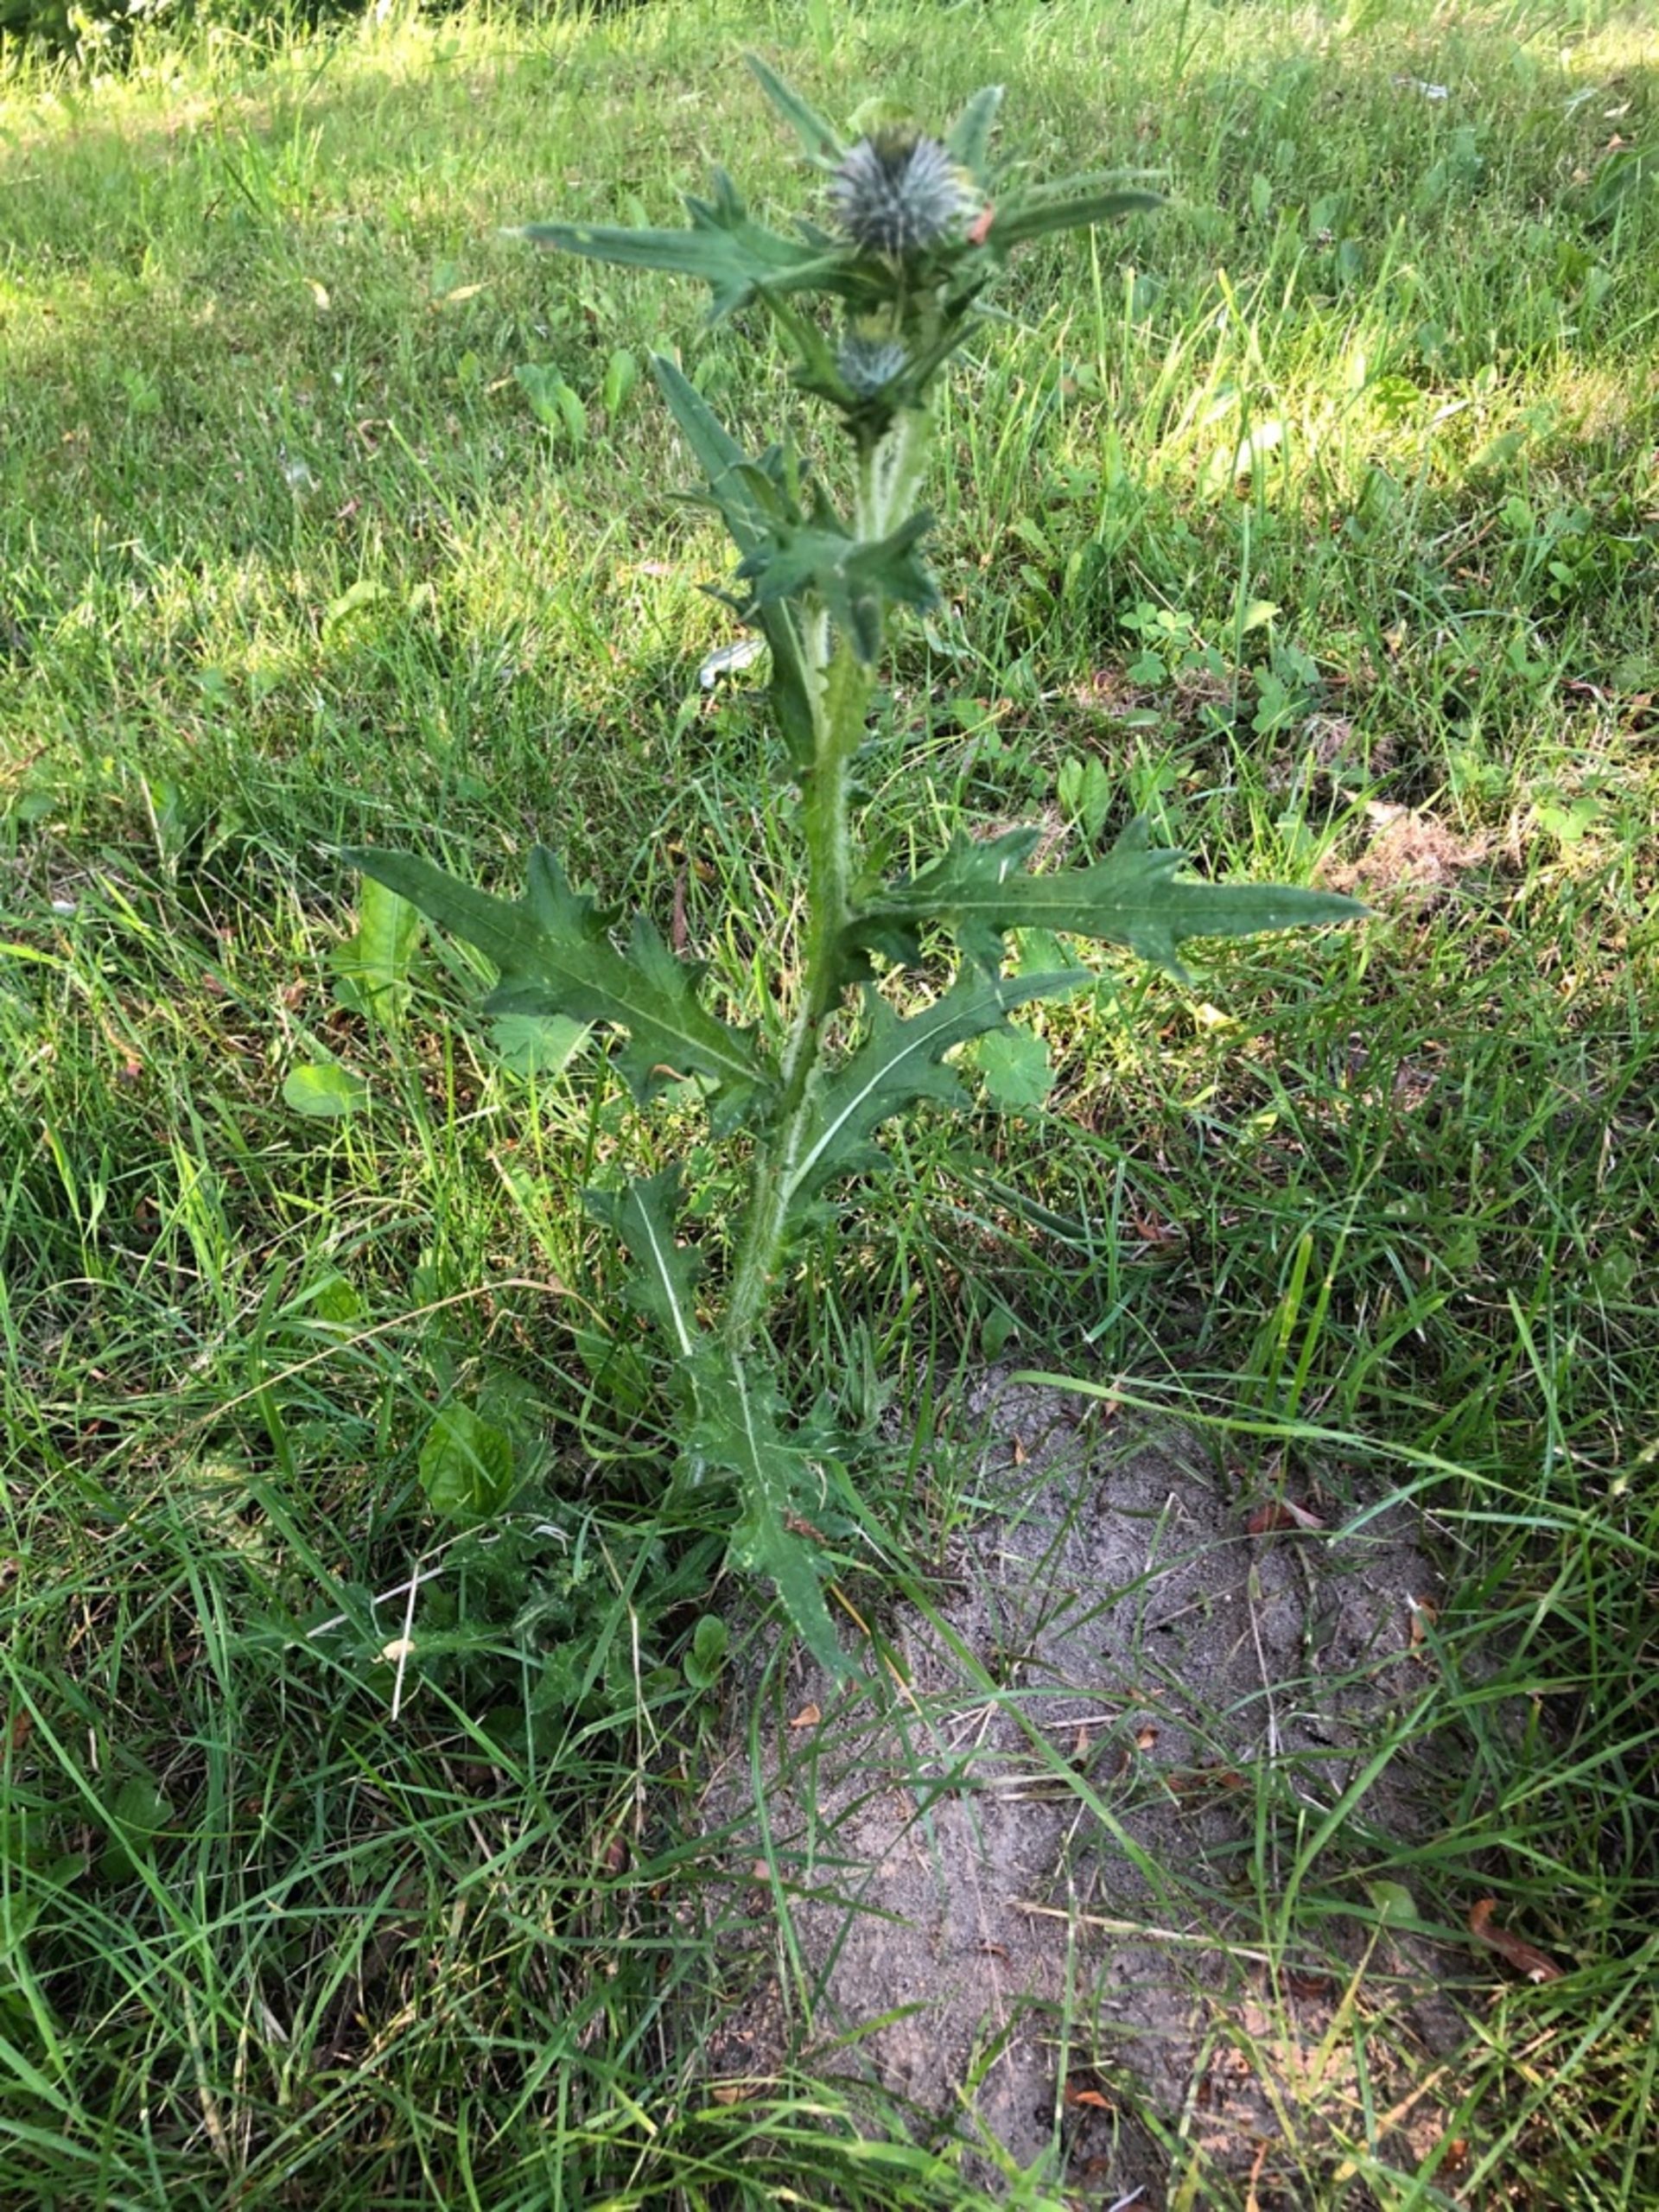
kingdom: Plantae
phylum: Tracheophyta
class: Magnoliopsida
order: Asterales
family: Asteraceae
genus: Cirsium
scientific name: Cirsium vulgare
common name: Horse-tidsel
